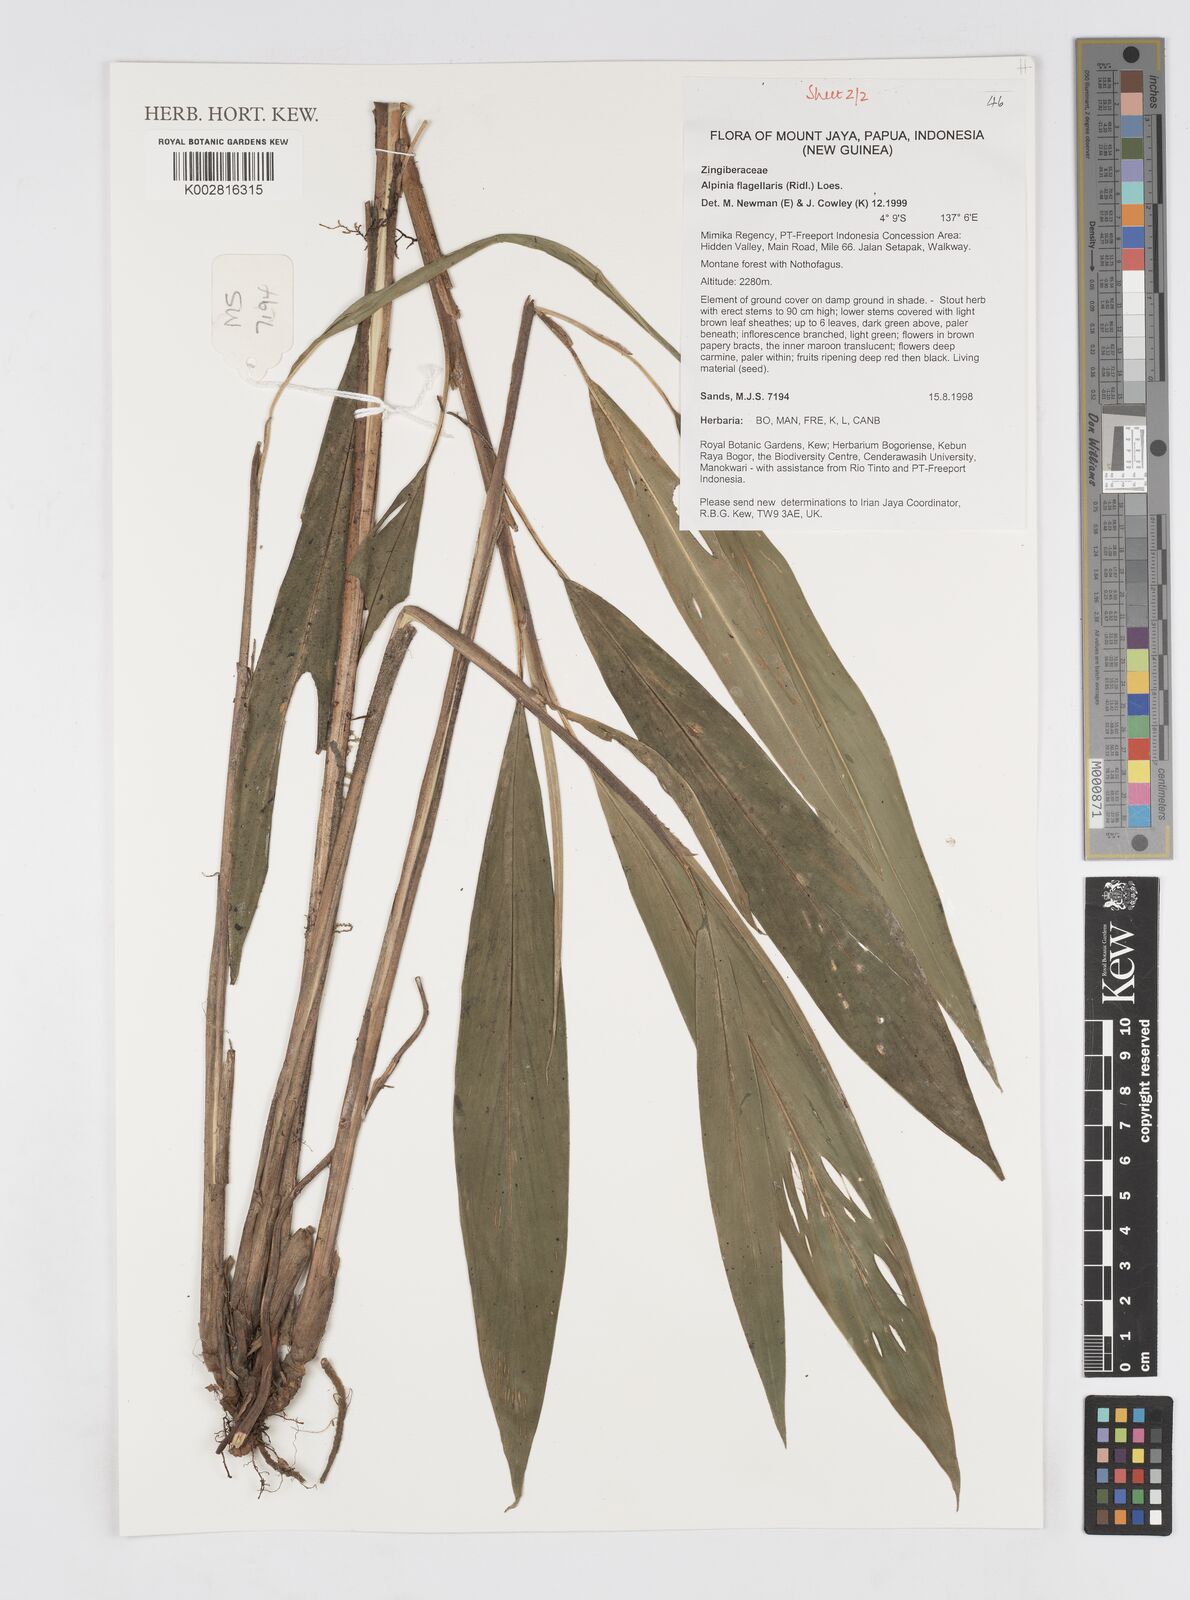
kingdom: Plantae
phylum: Tracheophyta
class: Liliopsida
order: Zingiberales
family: Zingiberaceae
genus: Alpinia
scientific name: Alpinia flagellaris
